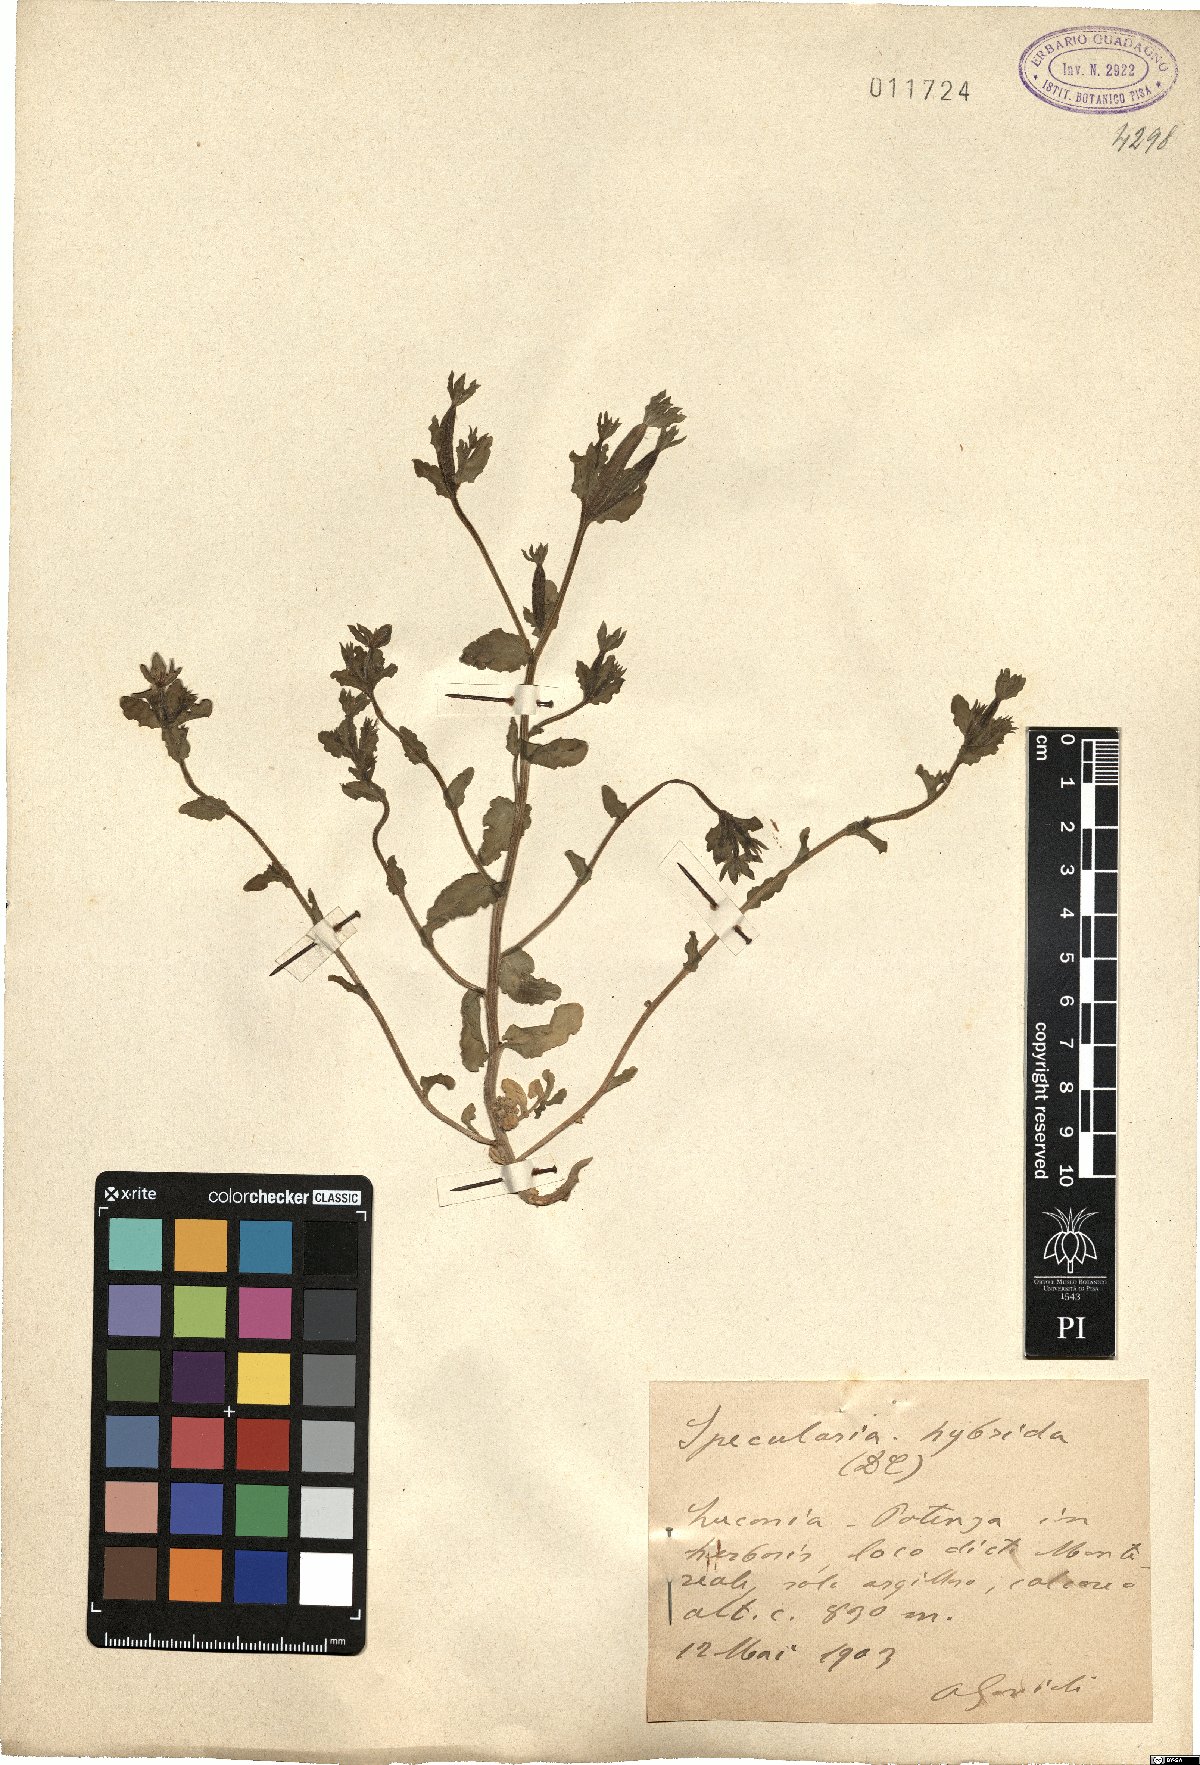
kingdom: Plantae
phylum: Tracheophyta
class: Magnoliopsida
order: Asterales
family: Campanulaceae
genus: Legousia
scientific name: Legousia hybrida
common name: Venus's-looking-glass
